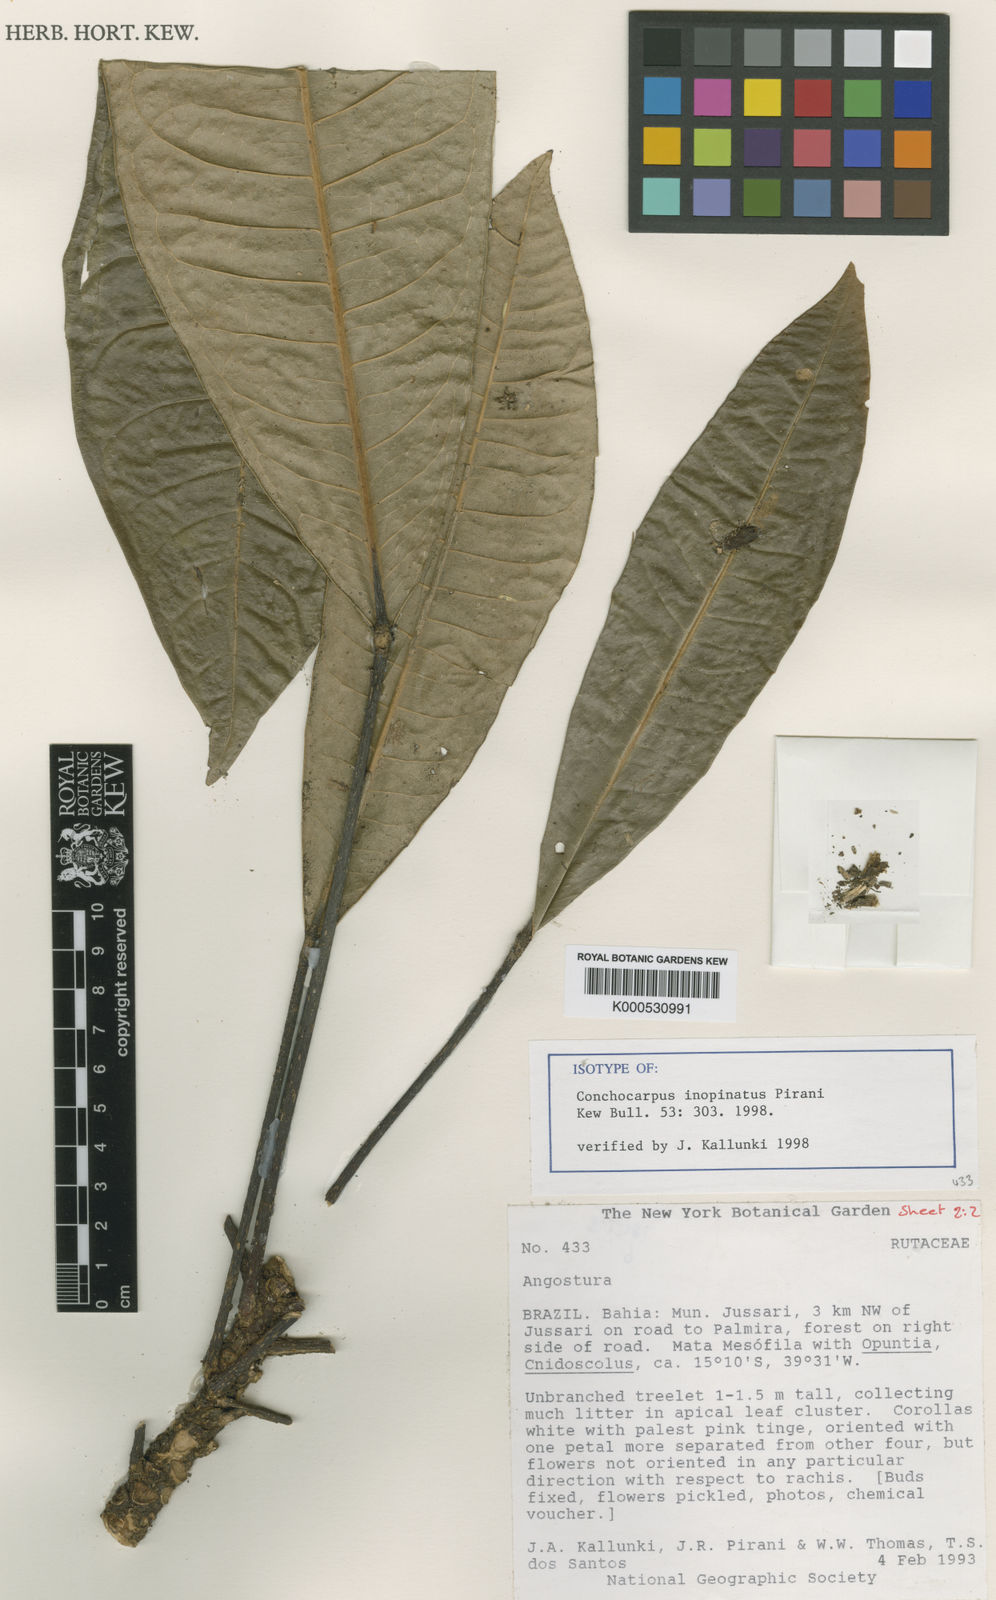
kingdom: Plantae
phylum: Tracheophyta
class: Magnoliopsida
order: Sapindales
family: Rutaceae
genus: Conchocarpus
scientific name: Conchocarpus inopinatus
